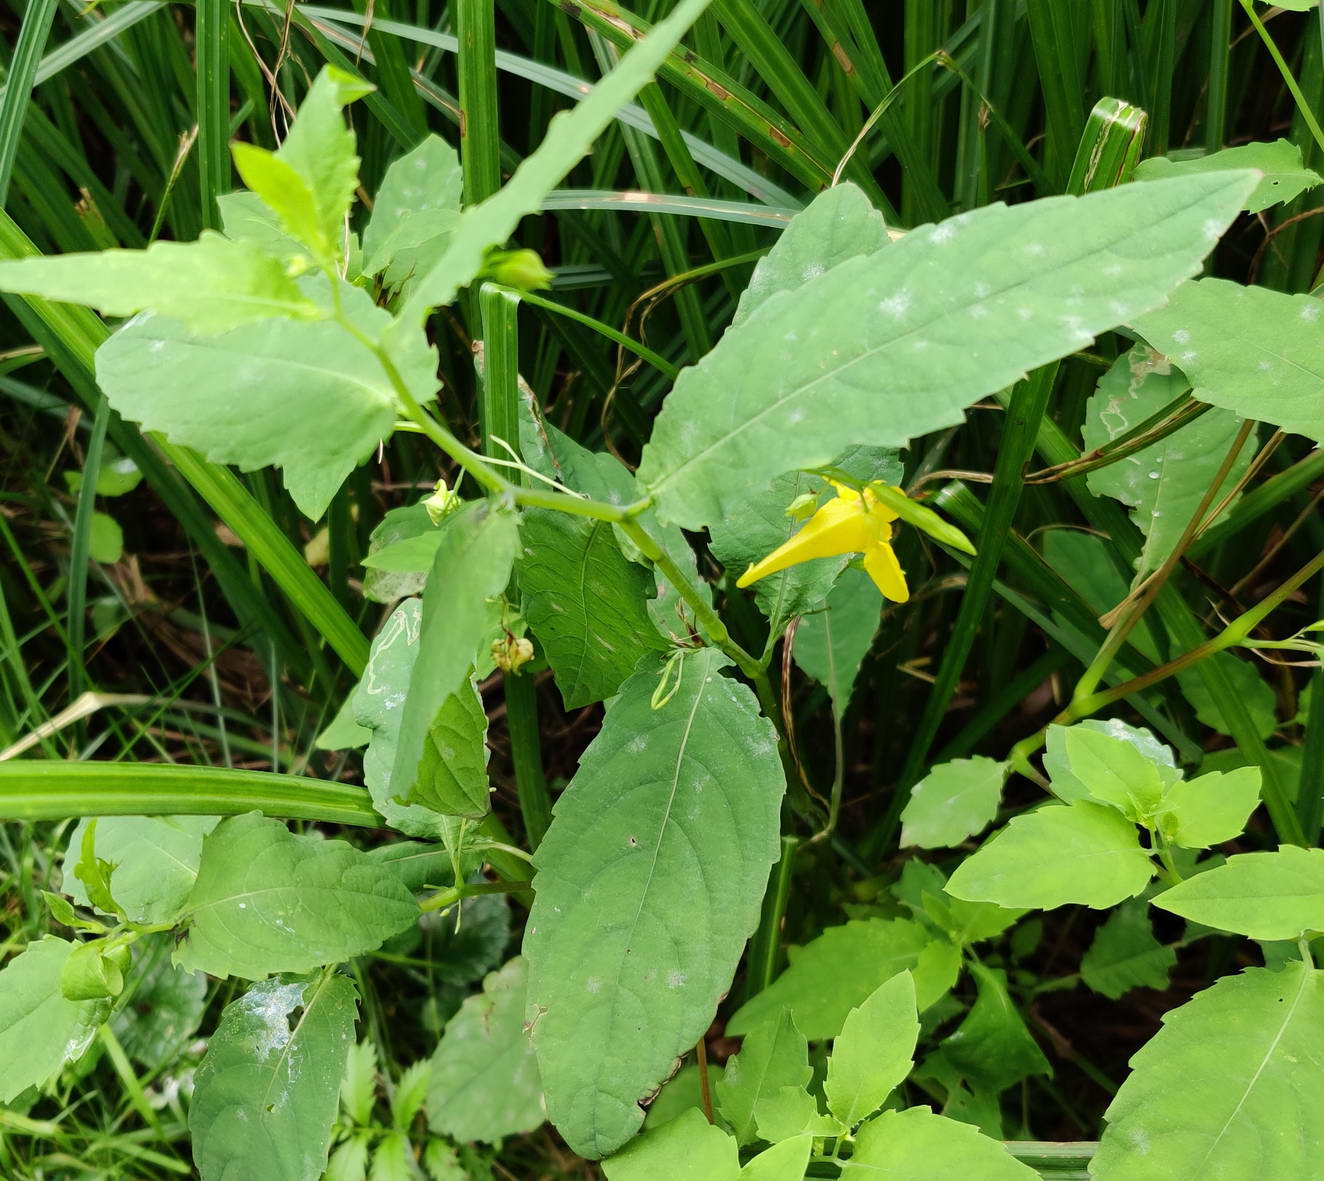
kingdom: Fungi
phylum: Ascomycota
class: Leotiomycetes
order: Helotiales
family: Erysiphaceae
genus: Podosphaera
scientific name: Podosphaera balsaminae
